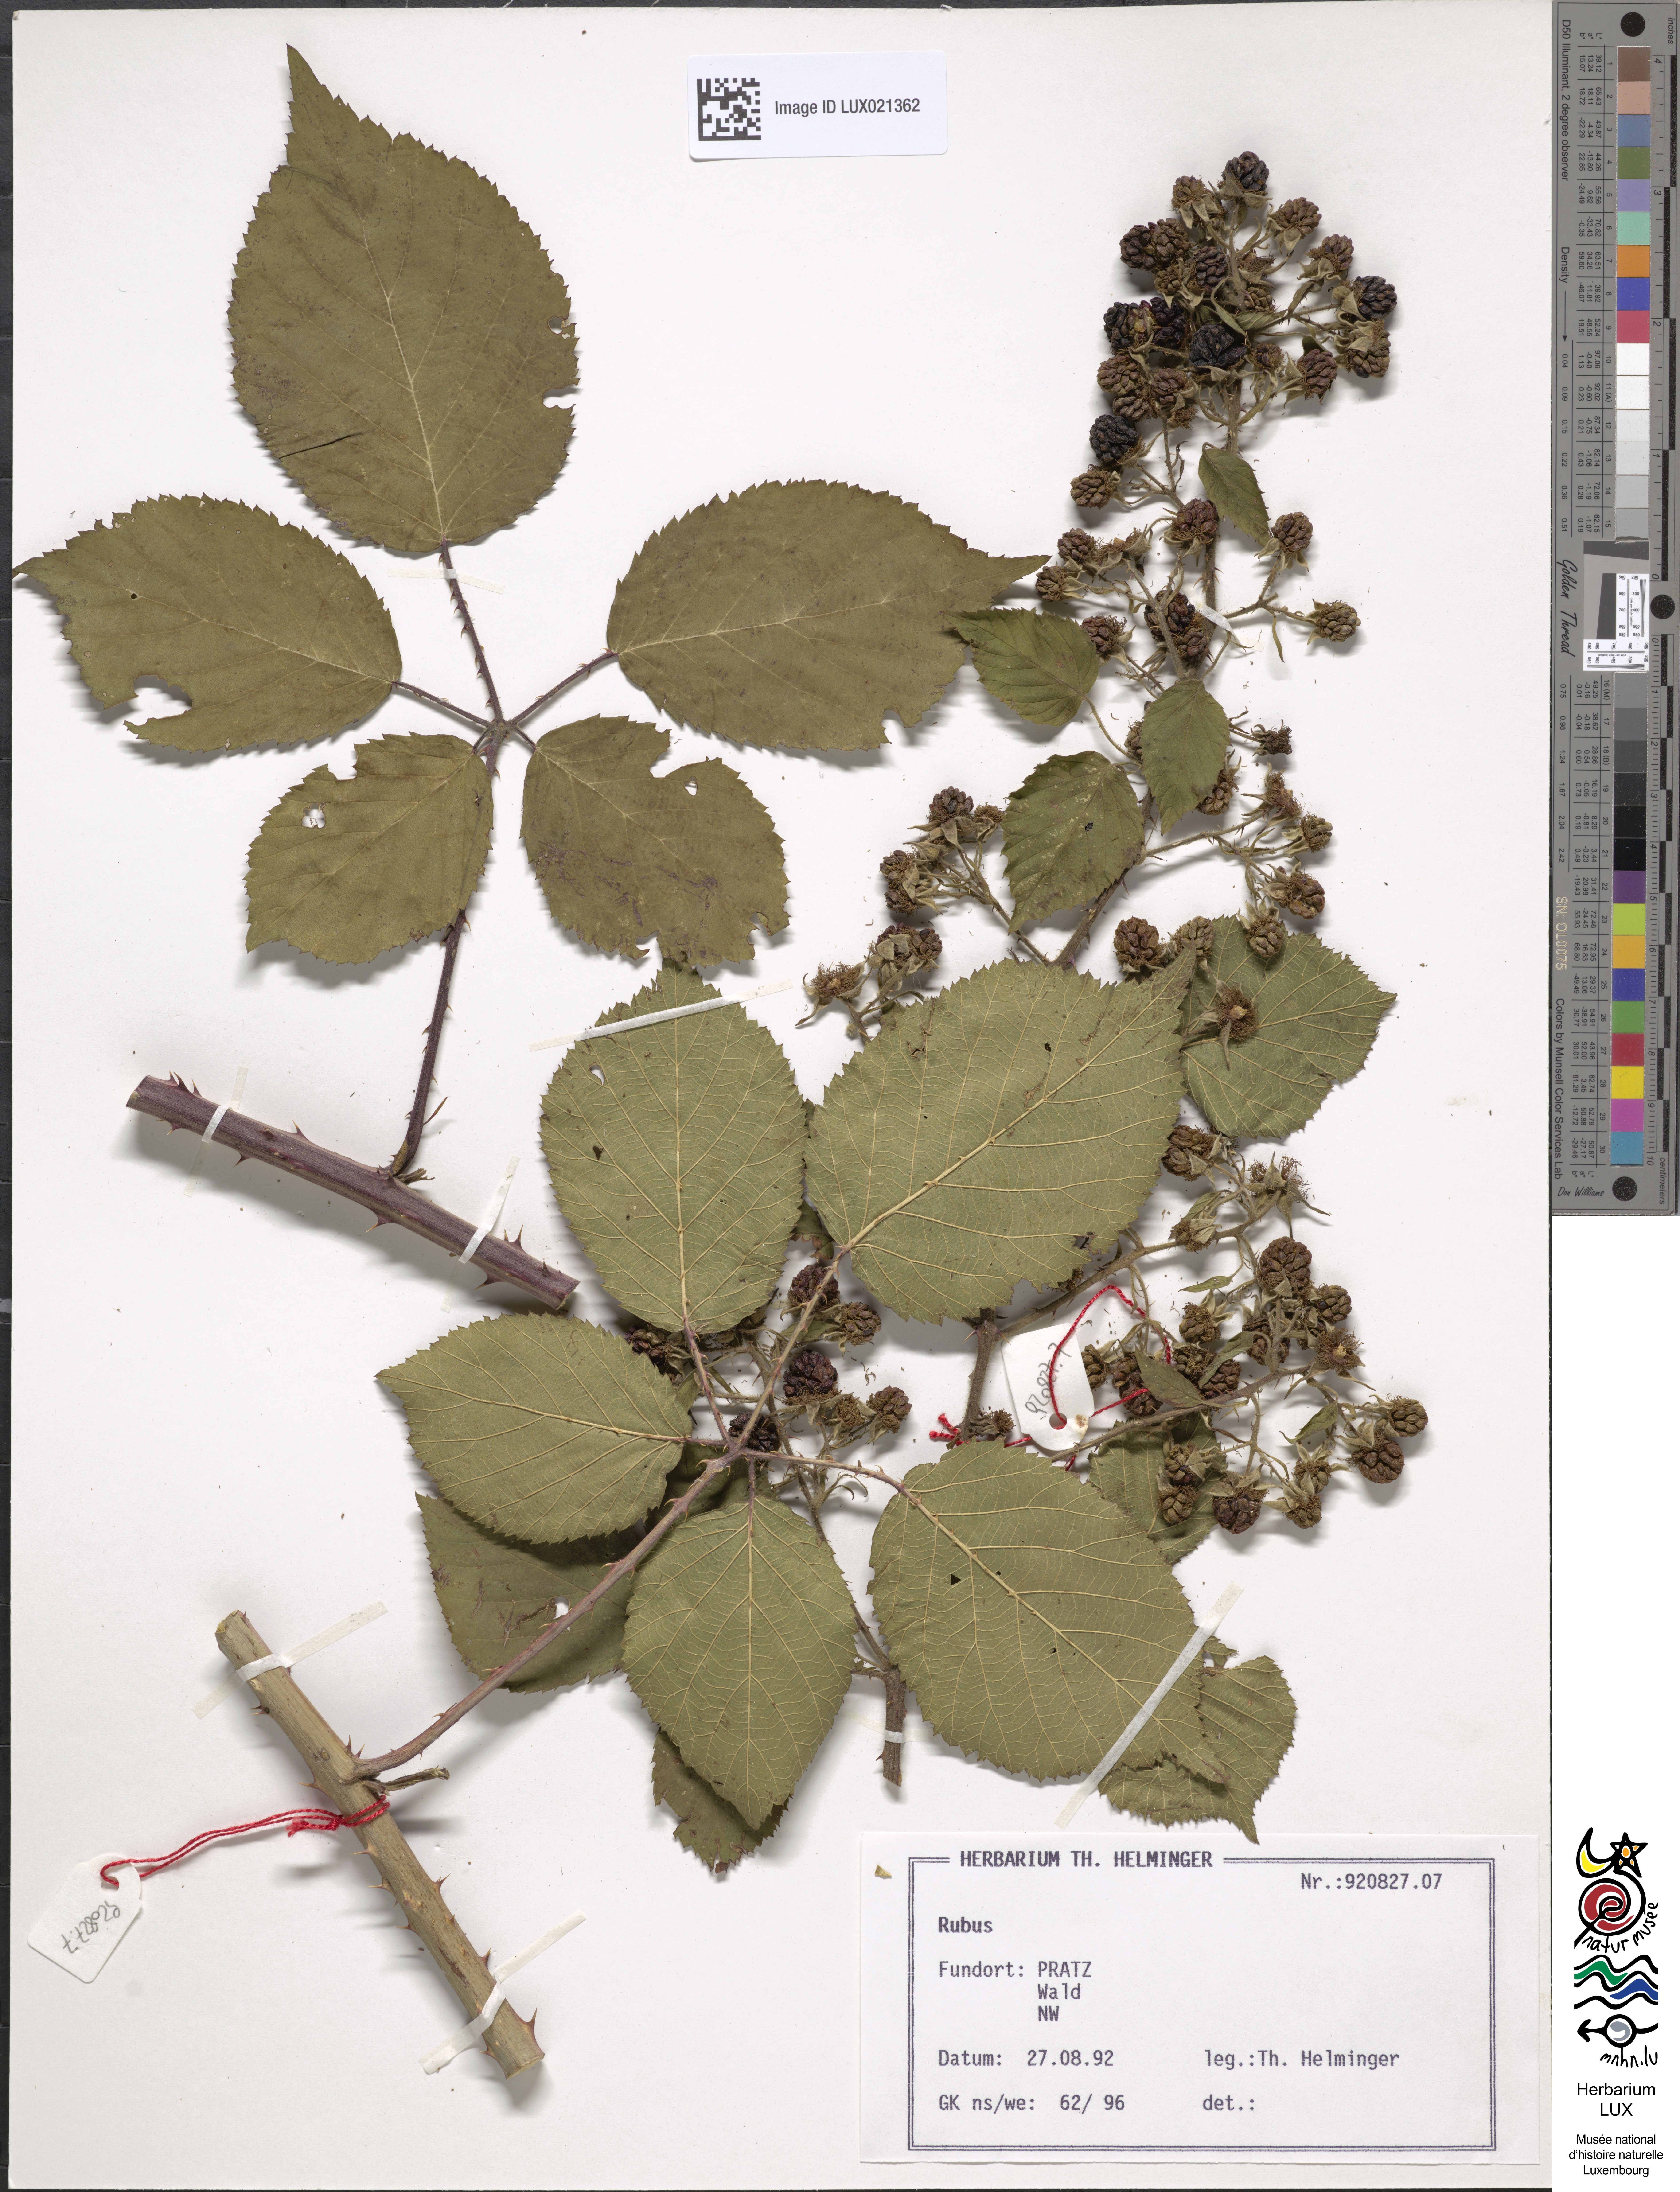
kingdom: Plantae
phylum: Tracheophyta
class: Magnoliopsida
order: Rosales
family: Rosaceae
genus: Rubus
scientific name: Rubus
